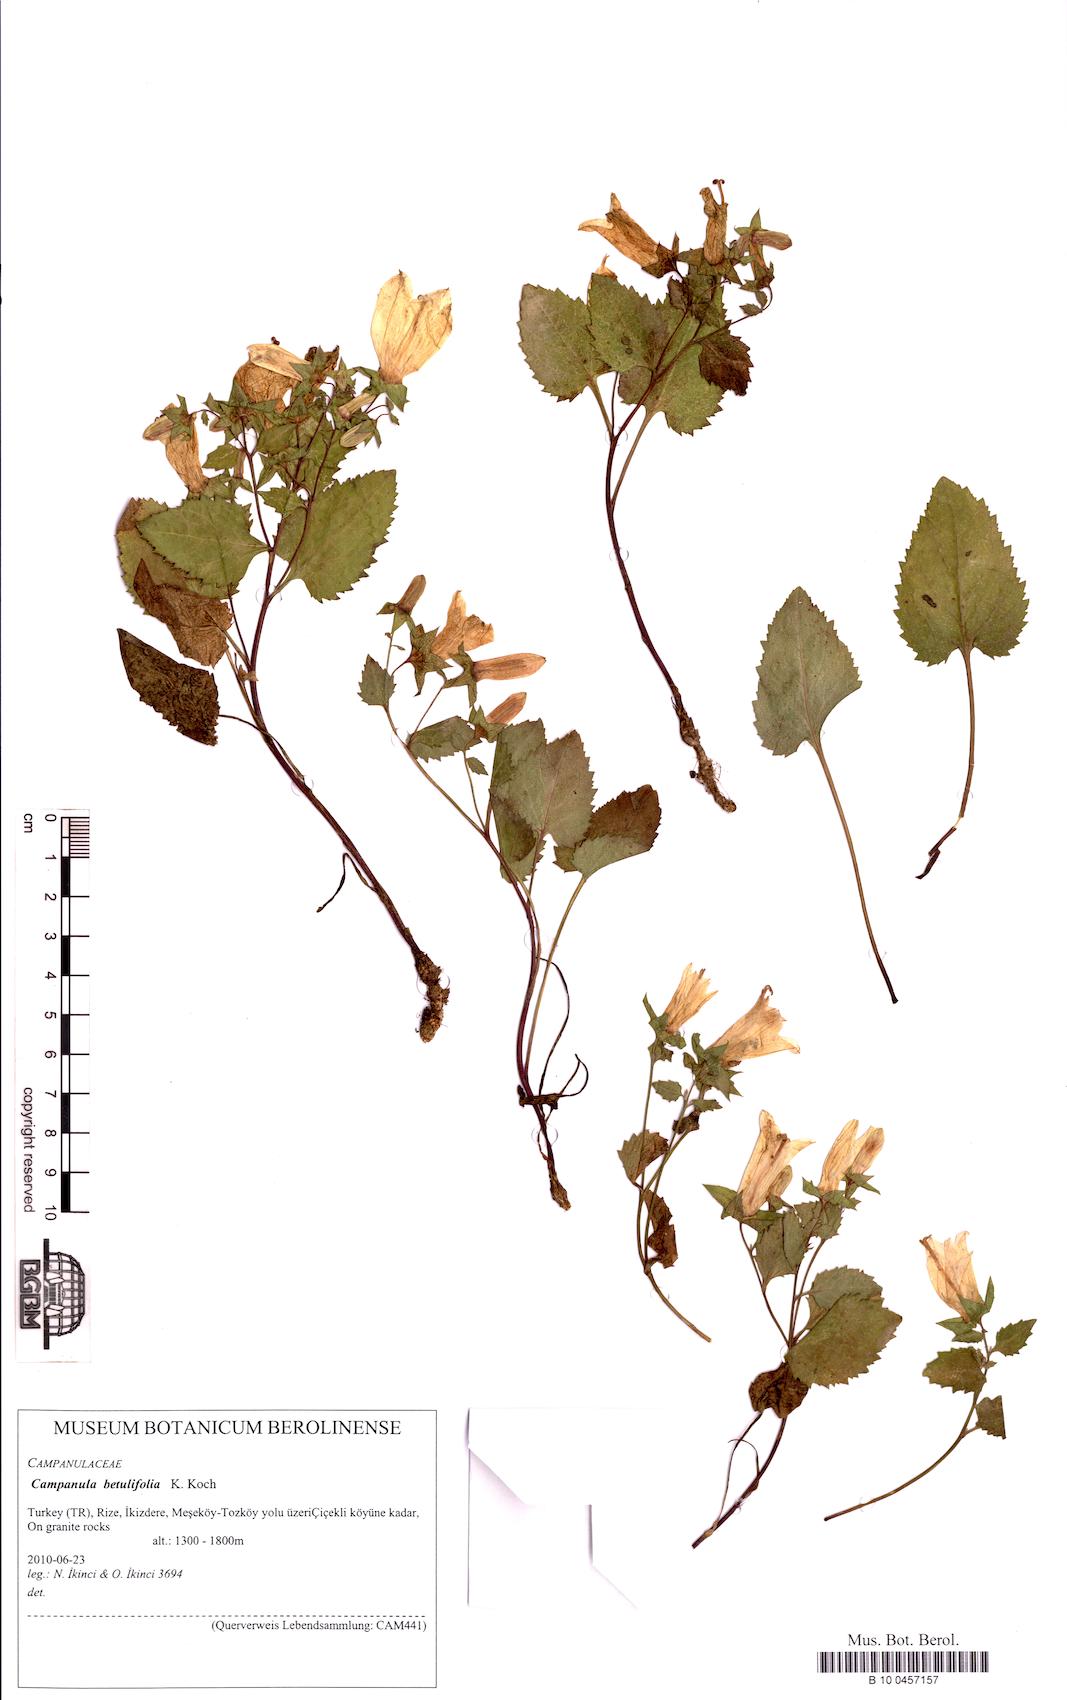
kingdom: Plantae
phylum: Tracheophyta
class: Magnoliopsida
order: Asterales
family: Campanulaceae
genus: Campanula
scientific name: Campanula betulifolia
